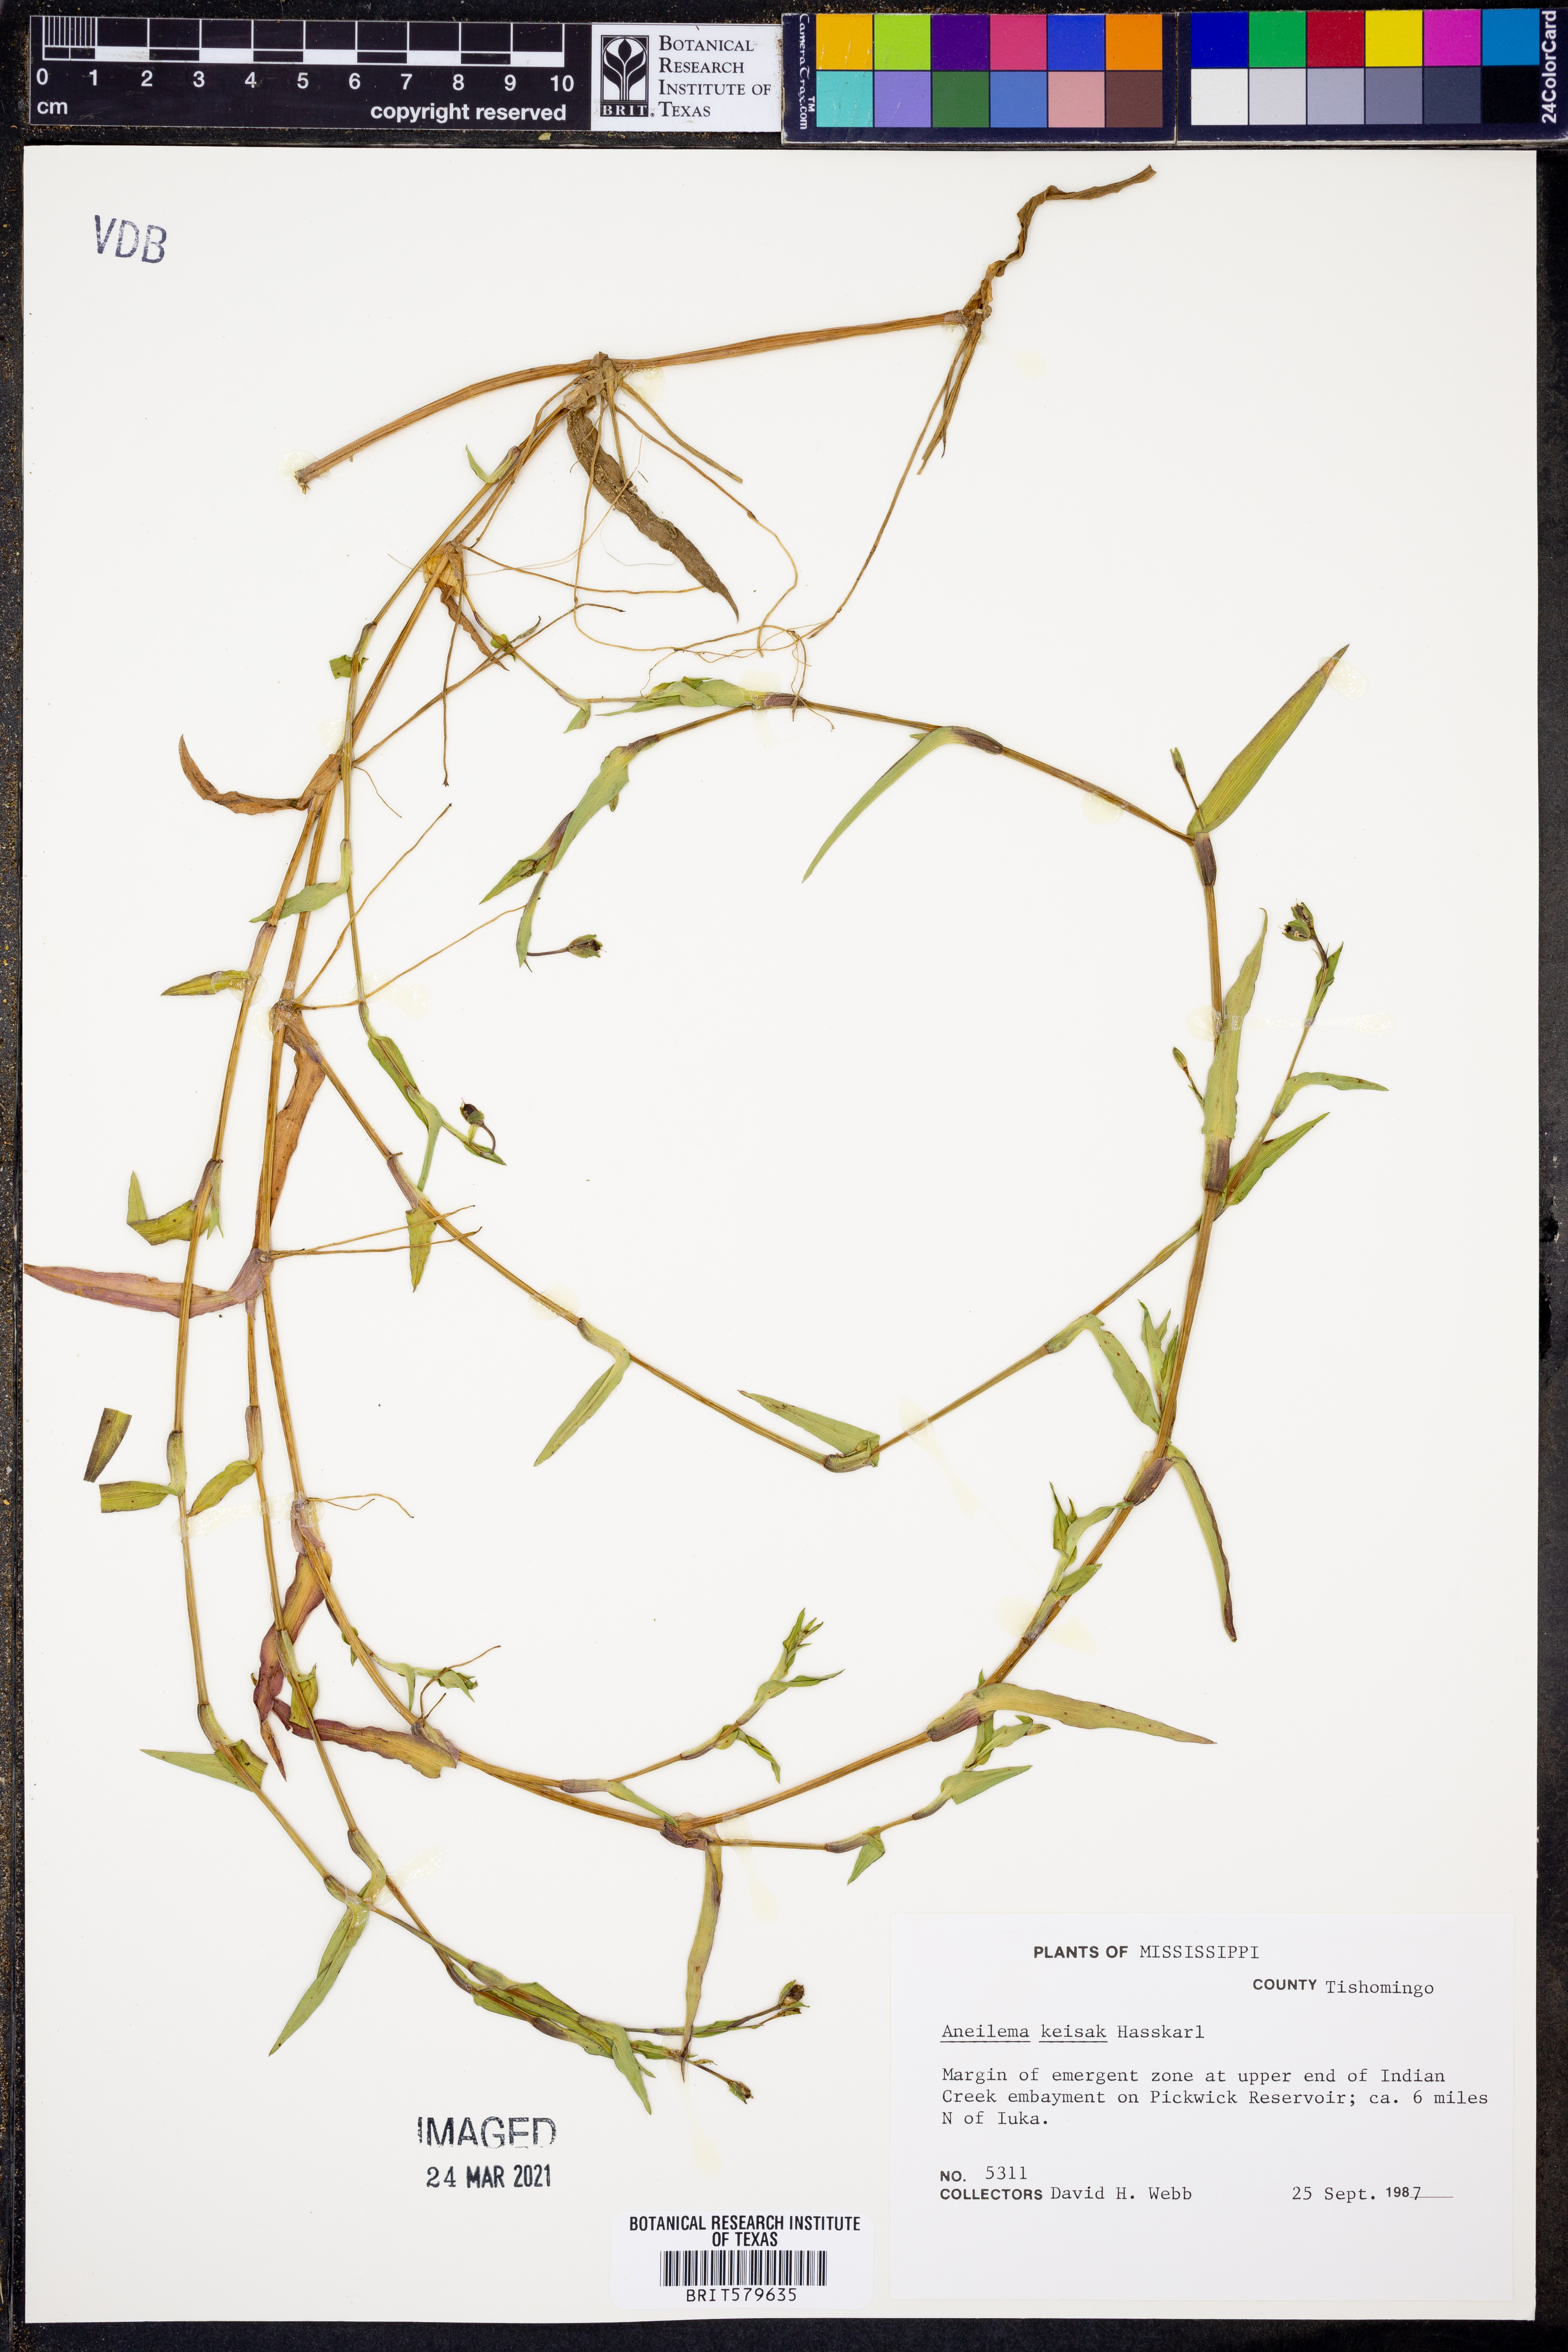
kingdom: Plantae
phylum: Tracheophyta
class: Liliopsida
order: Commelinales
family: Commelinaceae
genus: Murdannia
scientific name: Murdannia keisak
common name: Wartremoving herb
